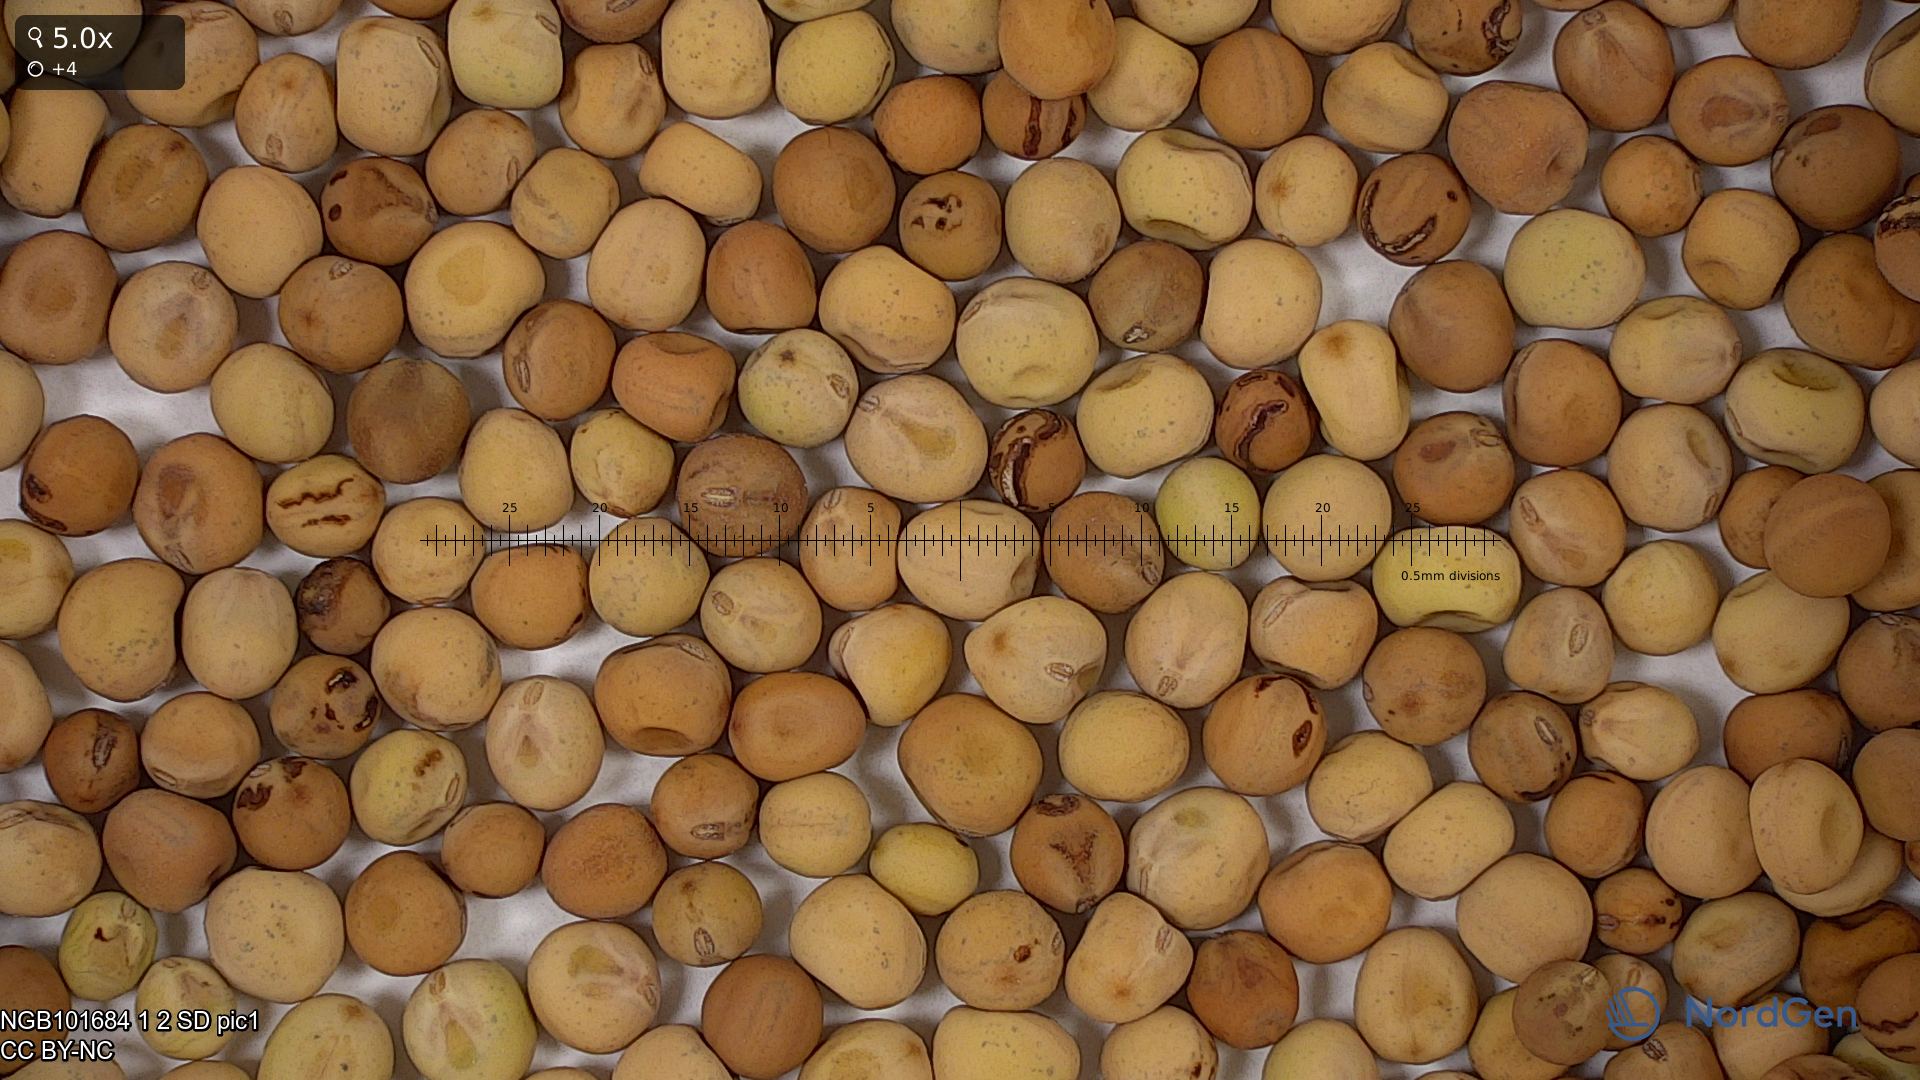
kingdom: Plantae
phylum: Tracheophyta
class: Magnoliopsida
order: Fabales
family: Fabaceae
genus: Lathyrus
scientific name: Lathyrus oleraceus
